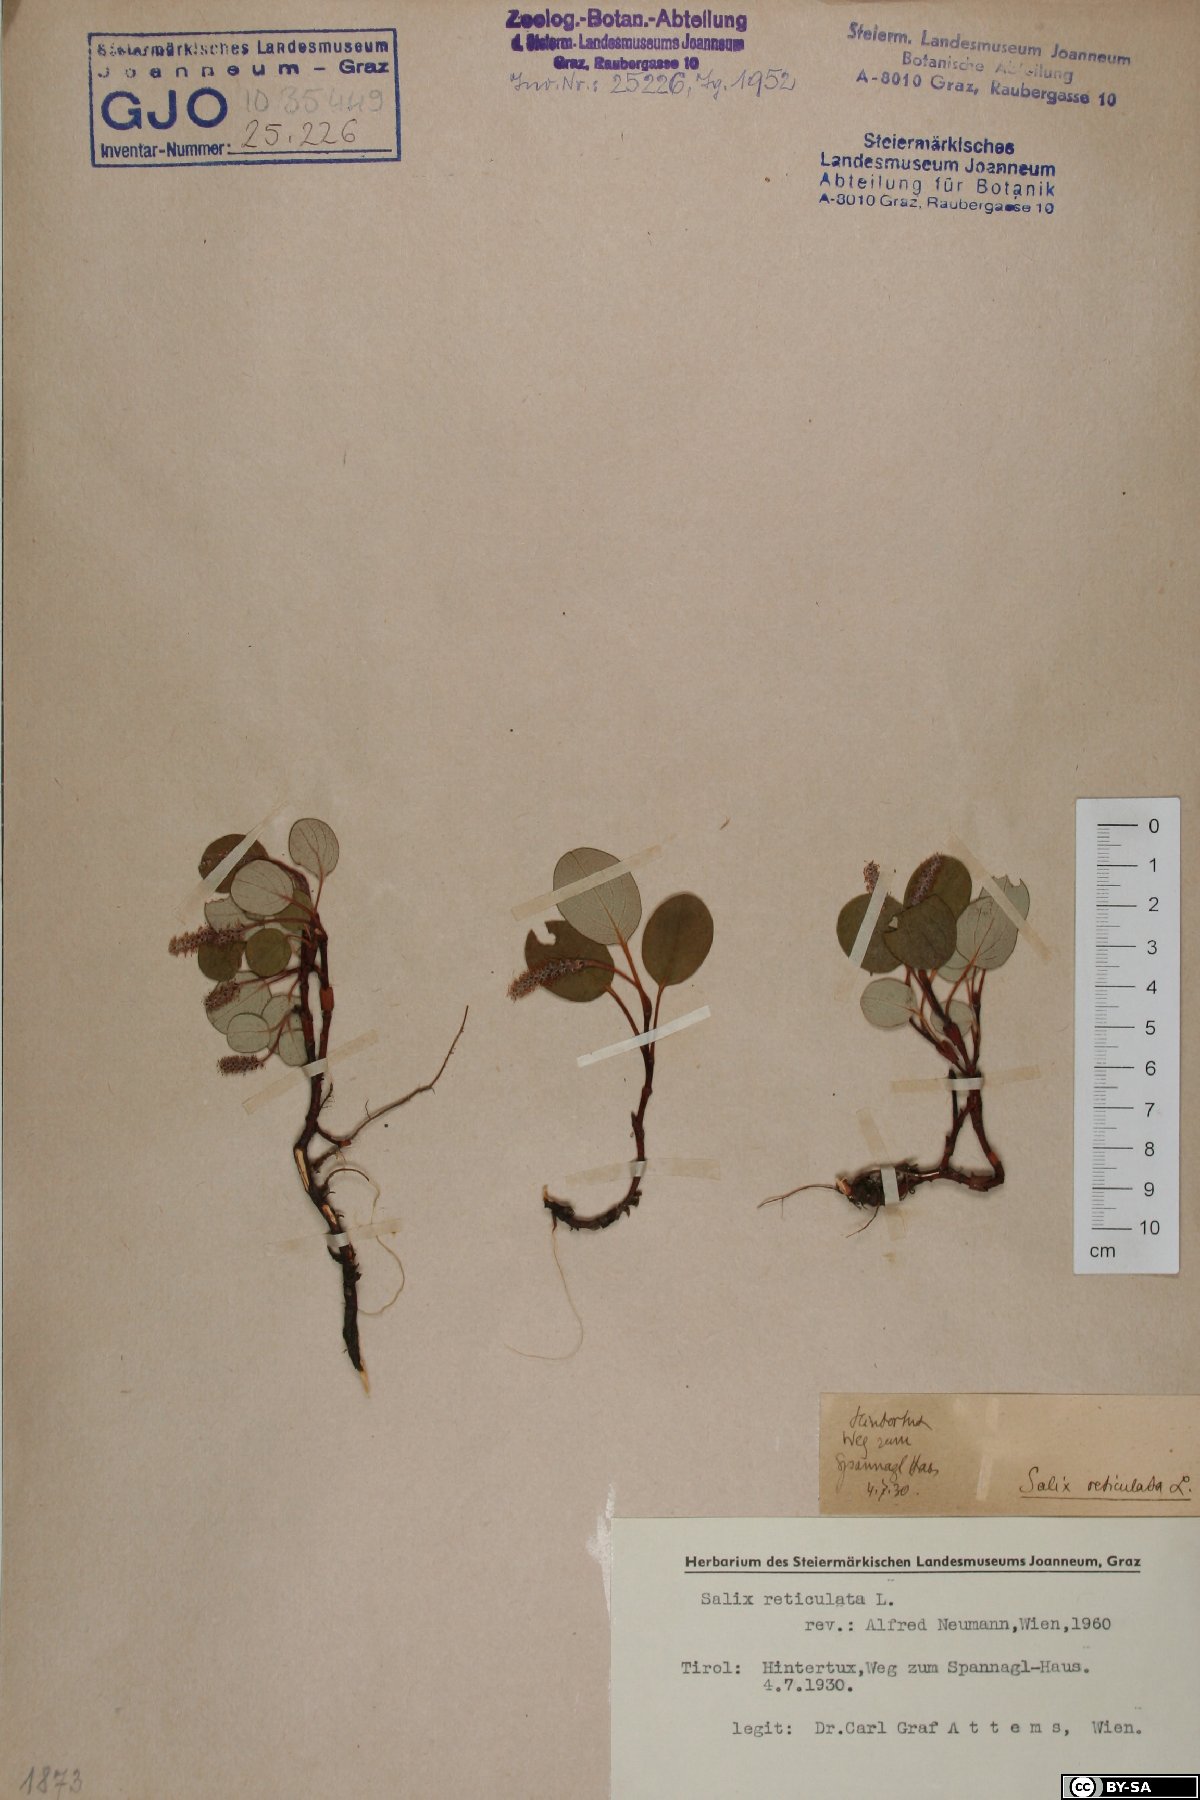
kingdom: Plantae
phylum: Tracheophyta
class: Magnoliopsida
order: Malpighiales
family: Salicaceae
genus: Salix
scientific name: Salix reticulata
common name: Net-leaved willow
